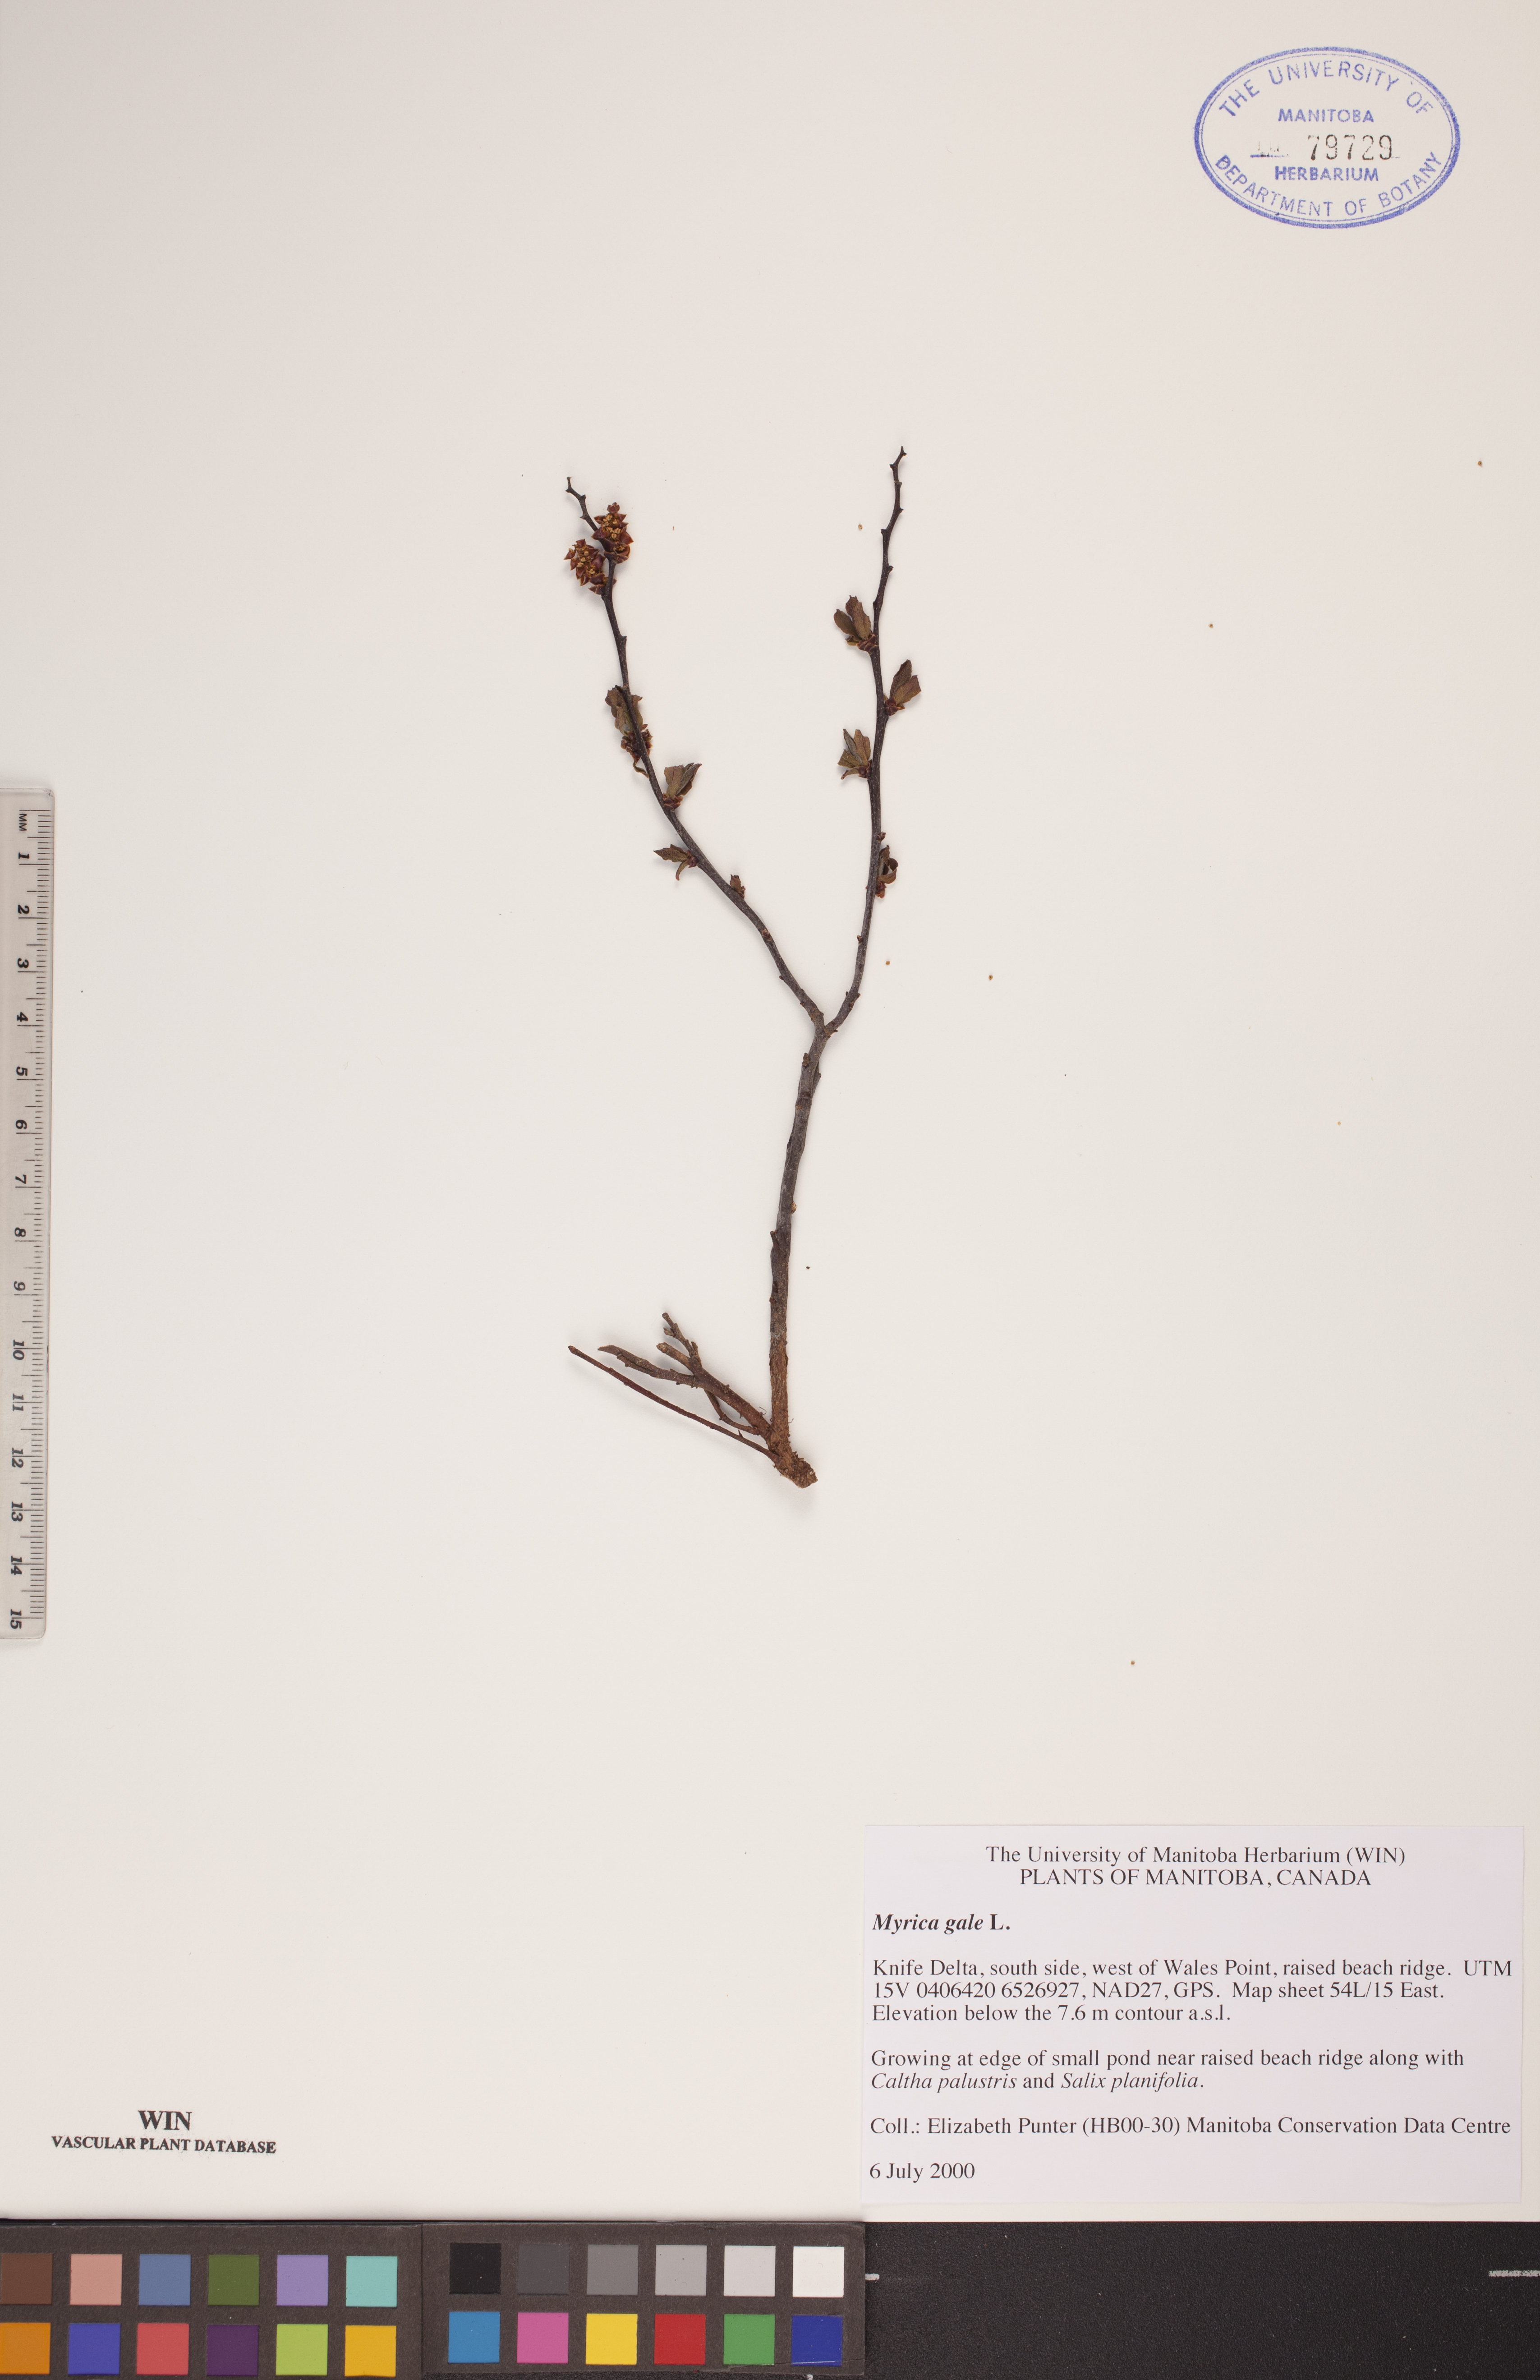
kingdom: Plantae
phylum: Tracheophyta
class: Magnoliopsida
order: Fagales
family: Myricaceae
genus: Myrica
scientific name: Myrica gale
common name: Sweet gale
